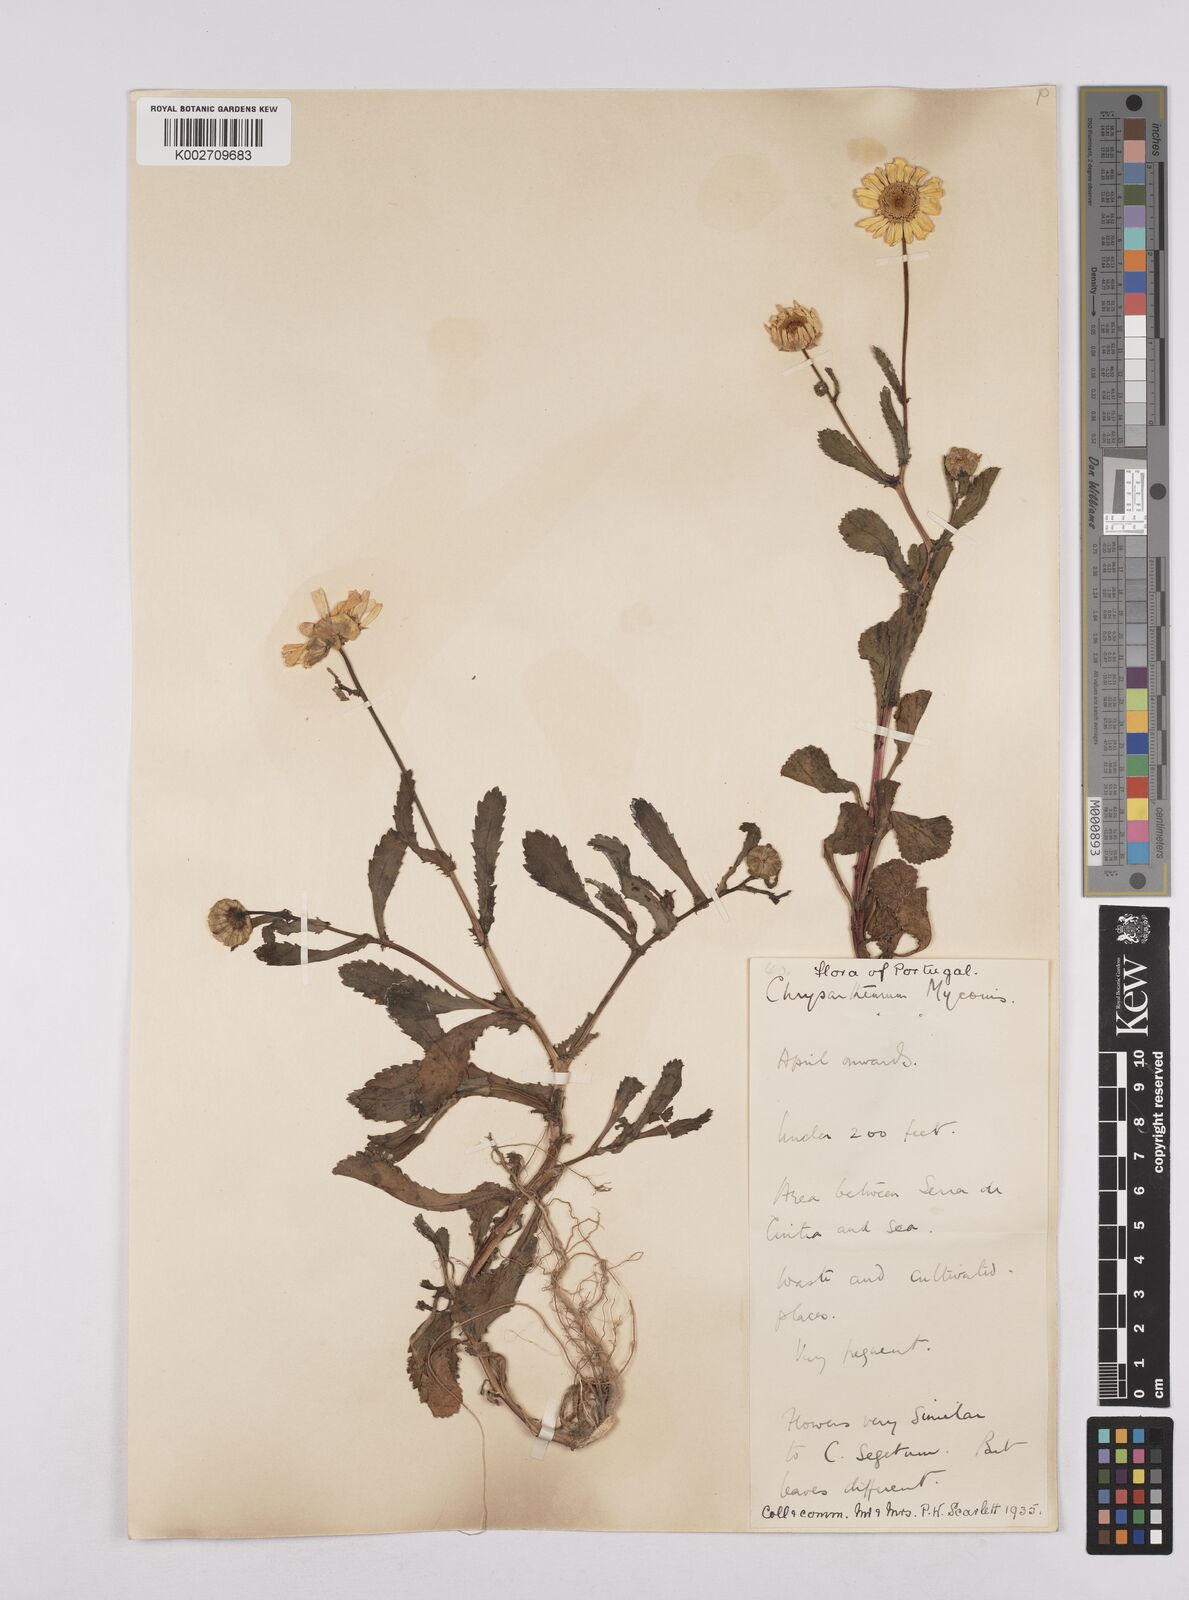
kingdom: Plantae
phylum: Tracheophyta
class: Magnoliopsida
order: Asterales
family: Asteraceae
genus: Coleostephus
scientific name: Coleostephus myconis
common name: Mediterranean marigold
